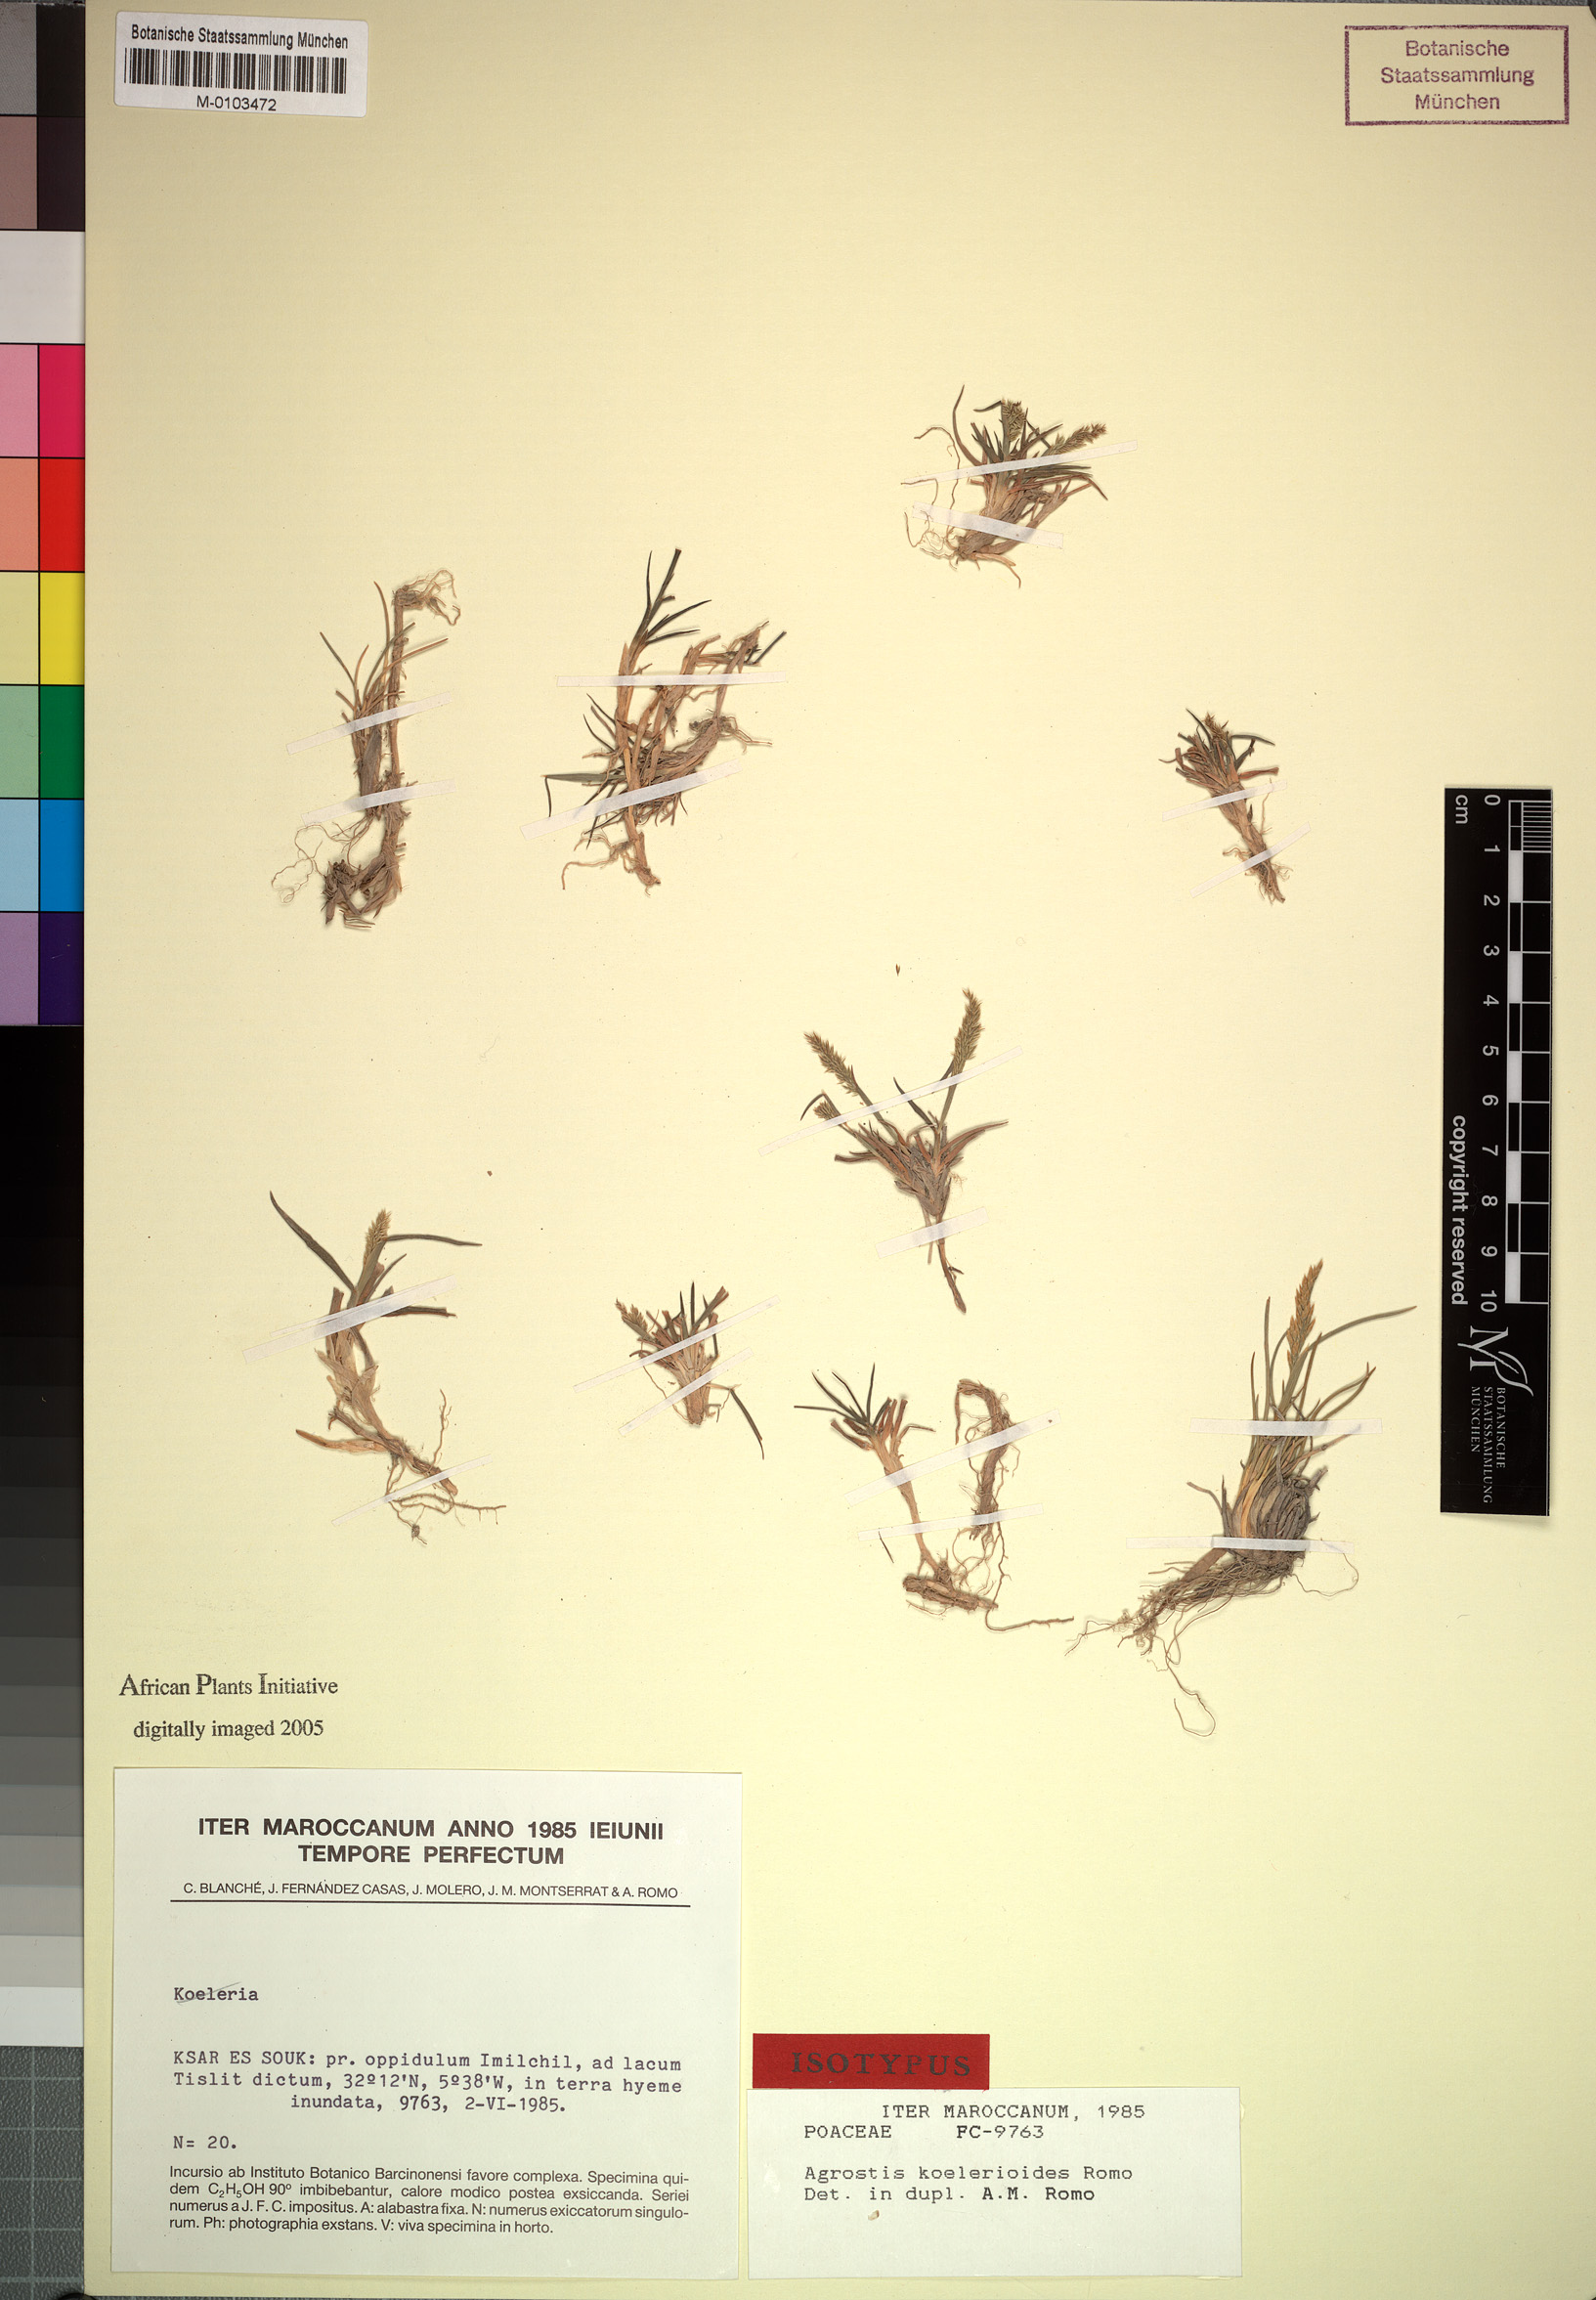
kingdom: Plantae
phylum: Tracheophyta
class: Liliopsida
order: Poales
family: Poaceae
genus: Polypogon
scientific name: Polypogon viridis
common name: Water bent
